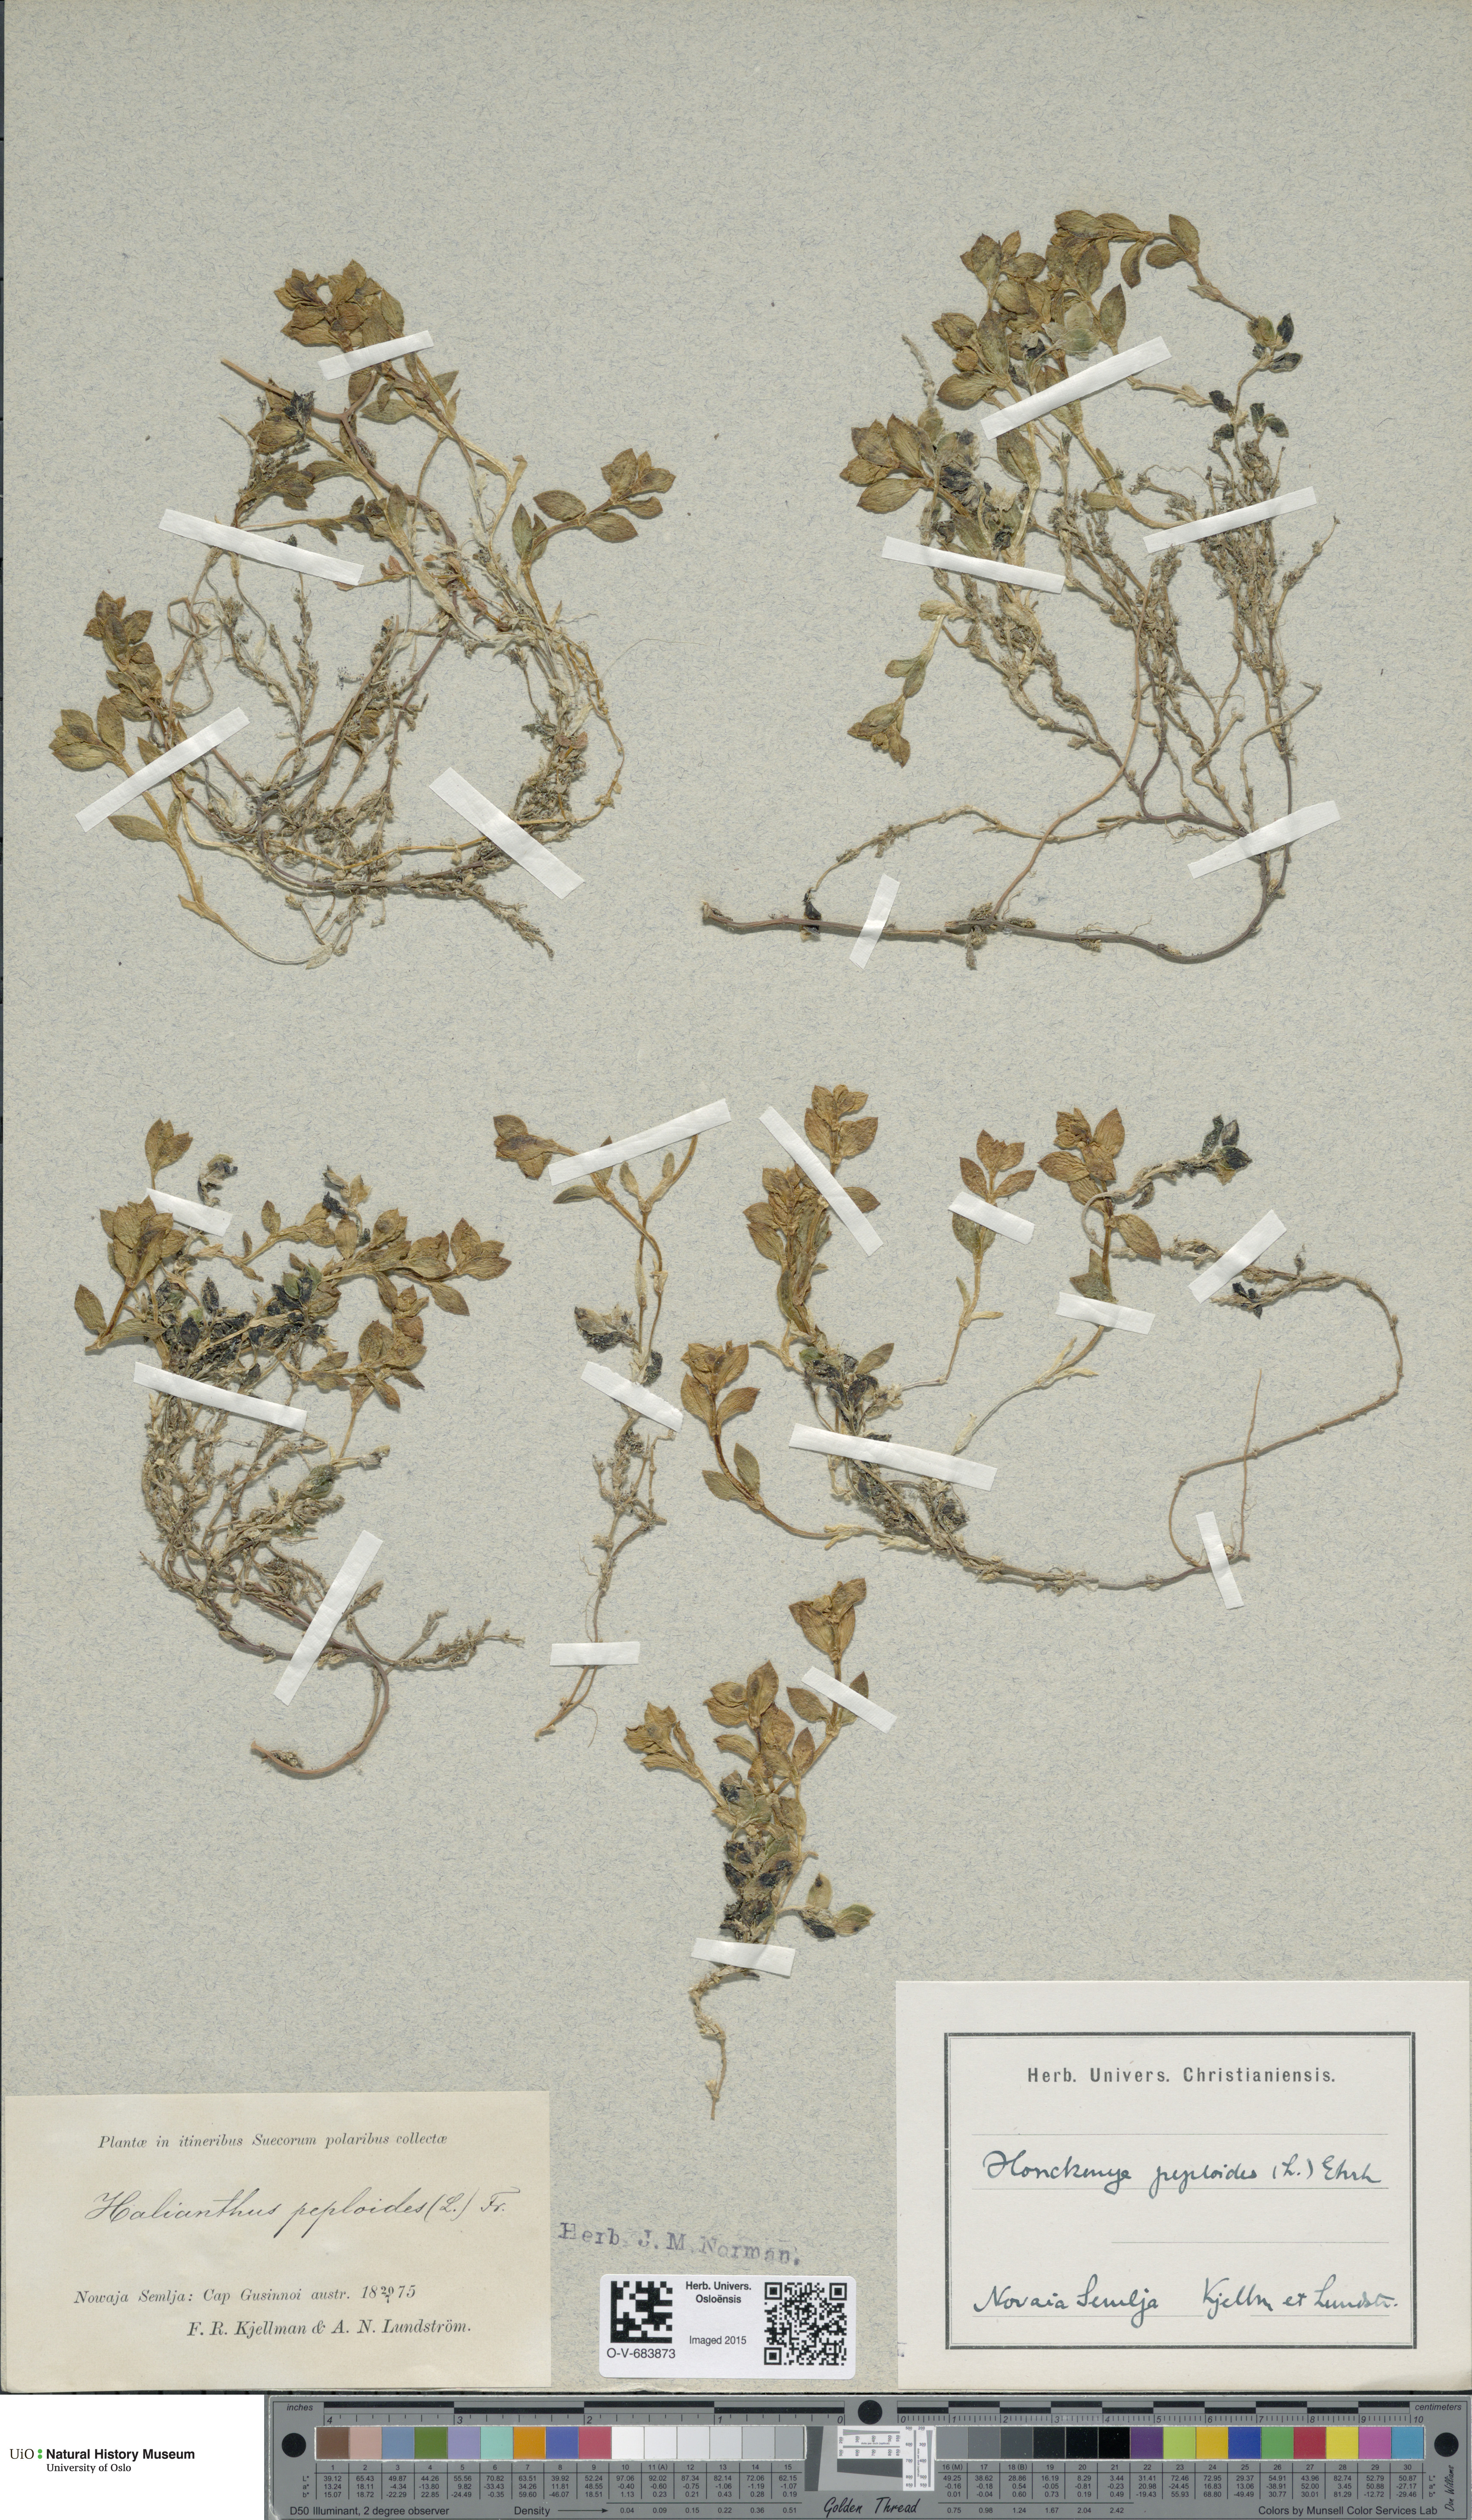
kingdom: Plantae
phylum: Tracheophyta
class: Magnoliopsida
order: Caryophyllales
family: Caryophyllaceae
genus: Honckenya
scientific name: Honckenya peploides
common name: Sea sandwort
